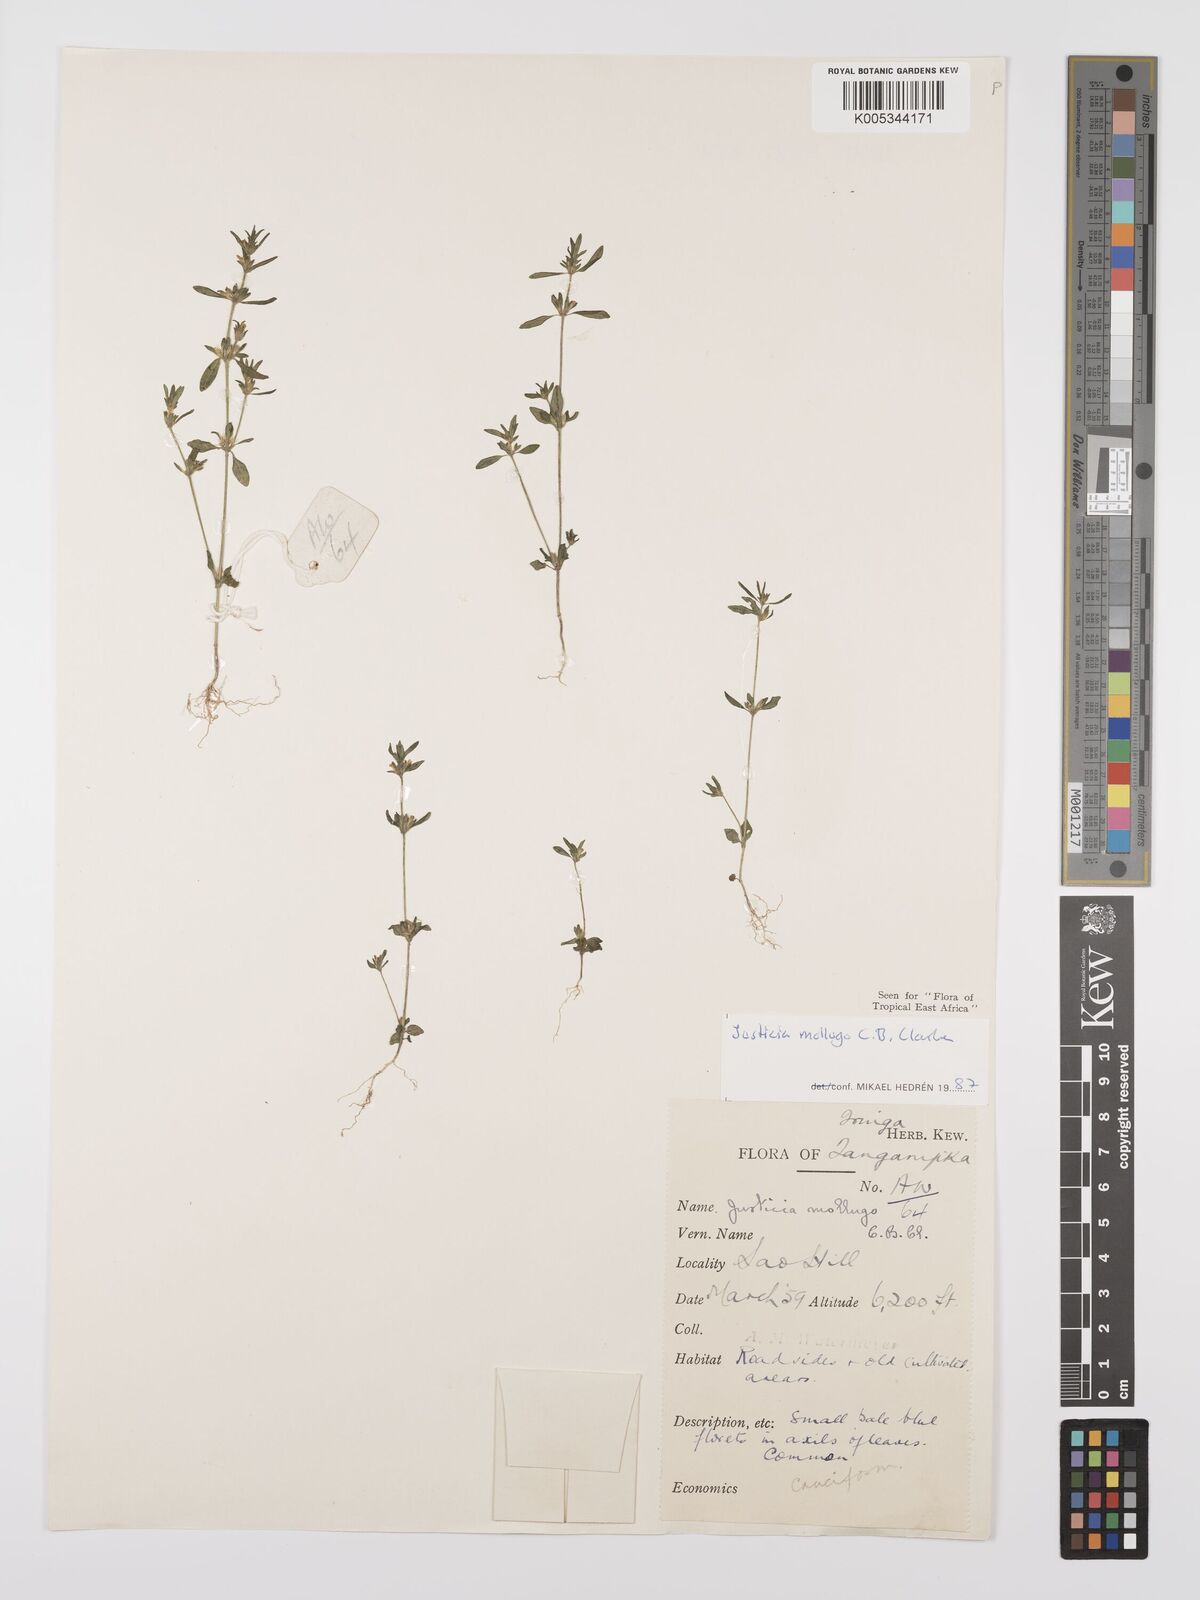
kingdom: Plantae
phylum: Tracheophyta
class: Magnoliopsida
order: Lamiales
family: Acanthaceae
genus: Justicia
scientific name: Justicia mollugo
